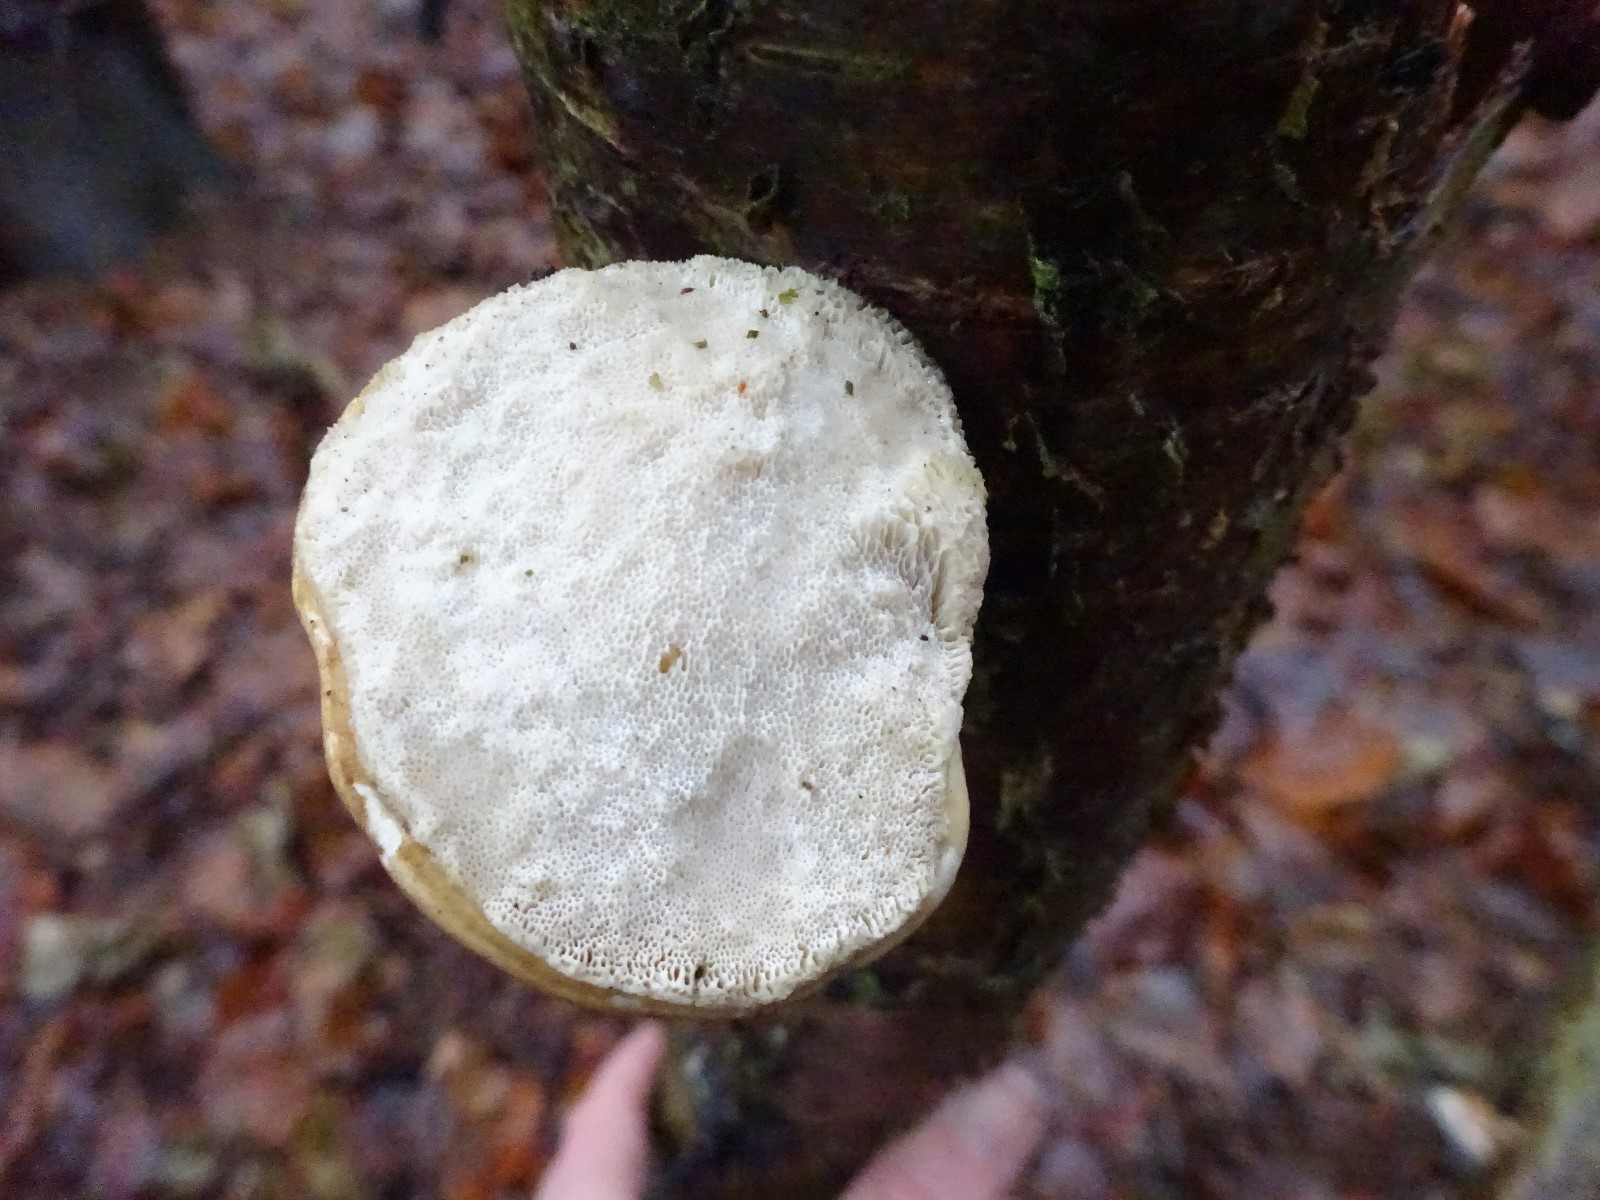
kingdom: Fungi
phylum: Basidiomycota
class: Agaricomycetes
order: Polyporales
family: Fomitopsidaceae
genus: Fomitopsis
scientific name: Fomitopsis betulina
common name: birkeporesvamp
